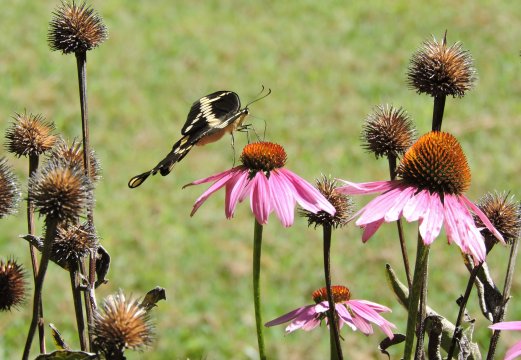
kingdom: Animalia
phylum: Arthropoda
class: Insecta
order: Lepidoptera
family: Papilionidae
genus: Papilio
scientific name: Papilio cresphontes
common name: Eastern Giant Swallowtail
